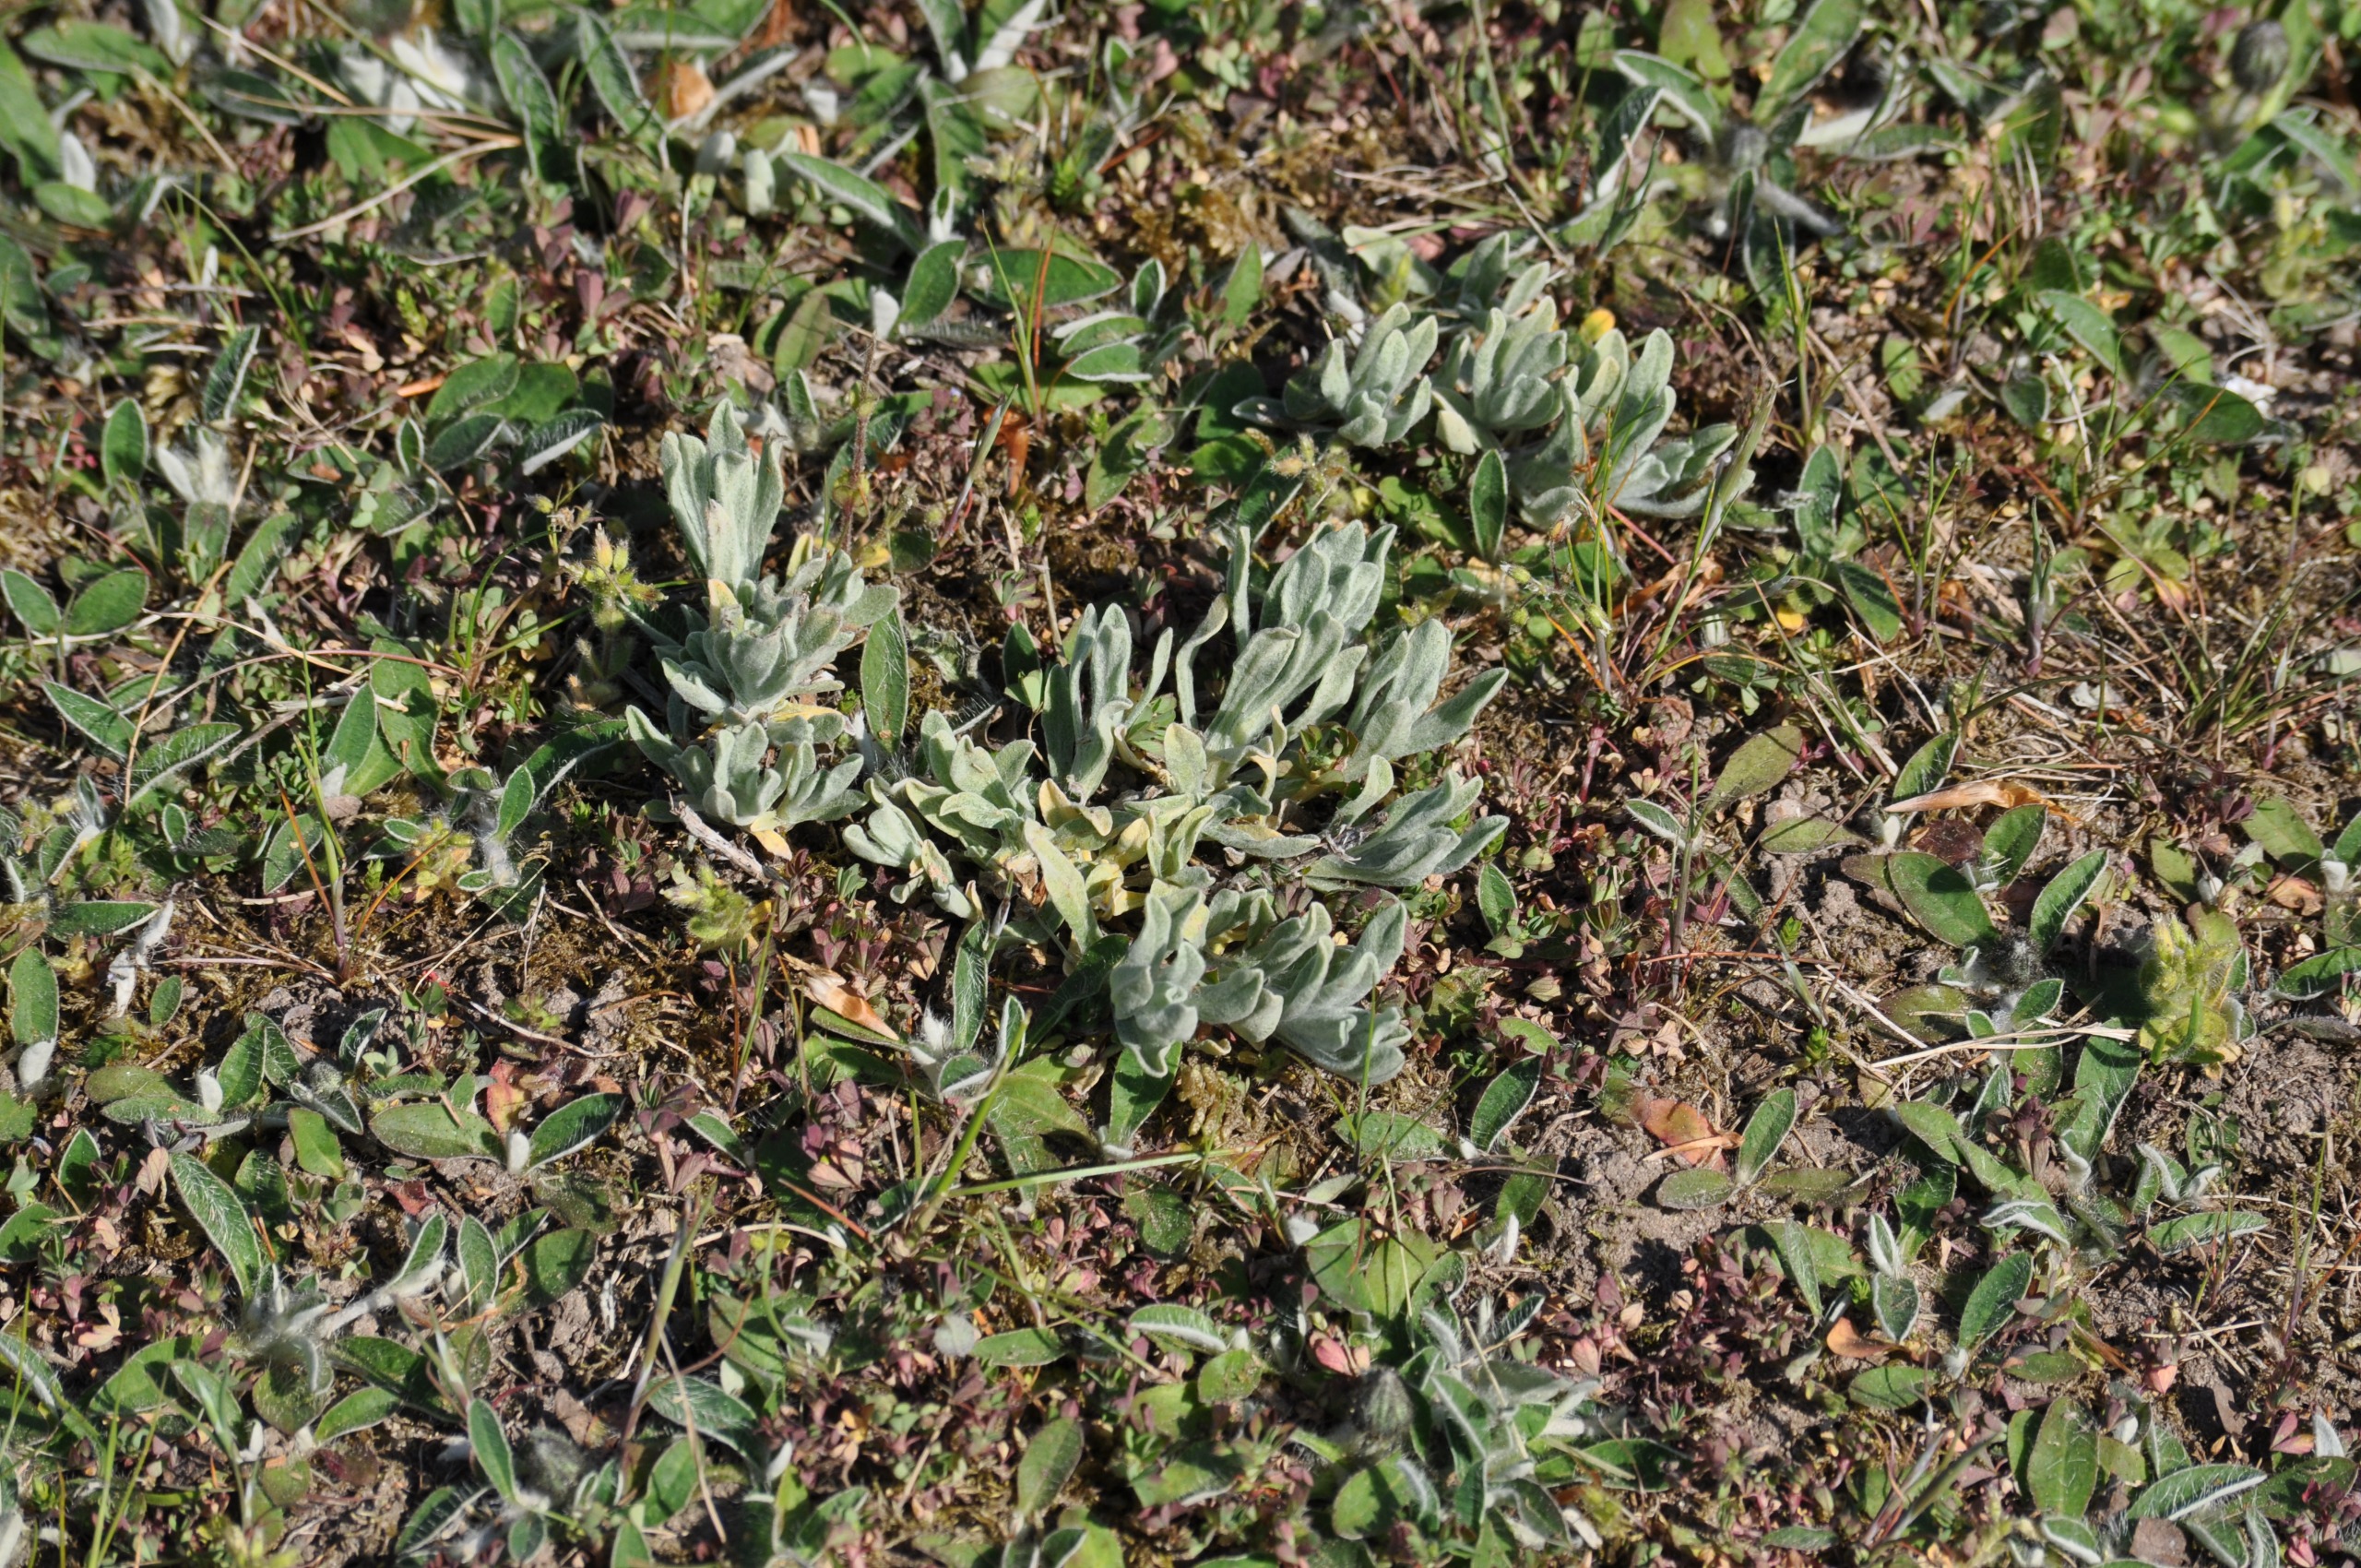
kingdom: Plantae
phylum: Tracheophyta
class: Magnoliopsida
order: Asterales
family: Asteraceae
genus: Helichrysum
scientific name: Helichrysum arenarium
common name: Gul evighedsblomst
